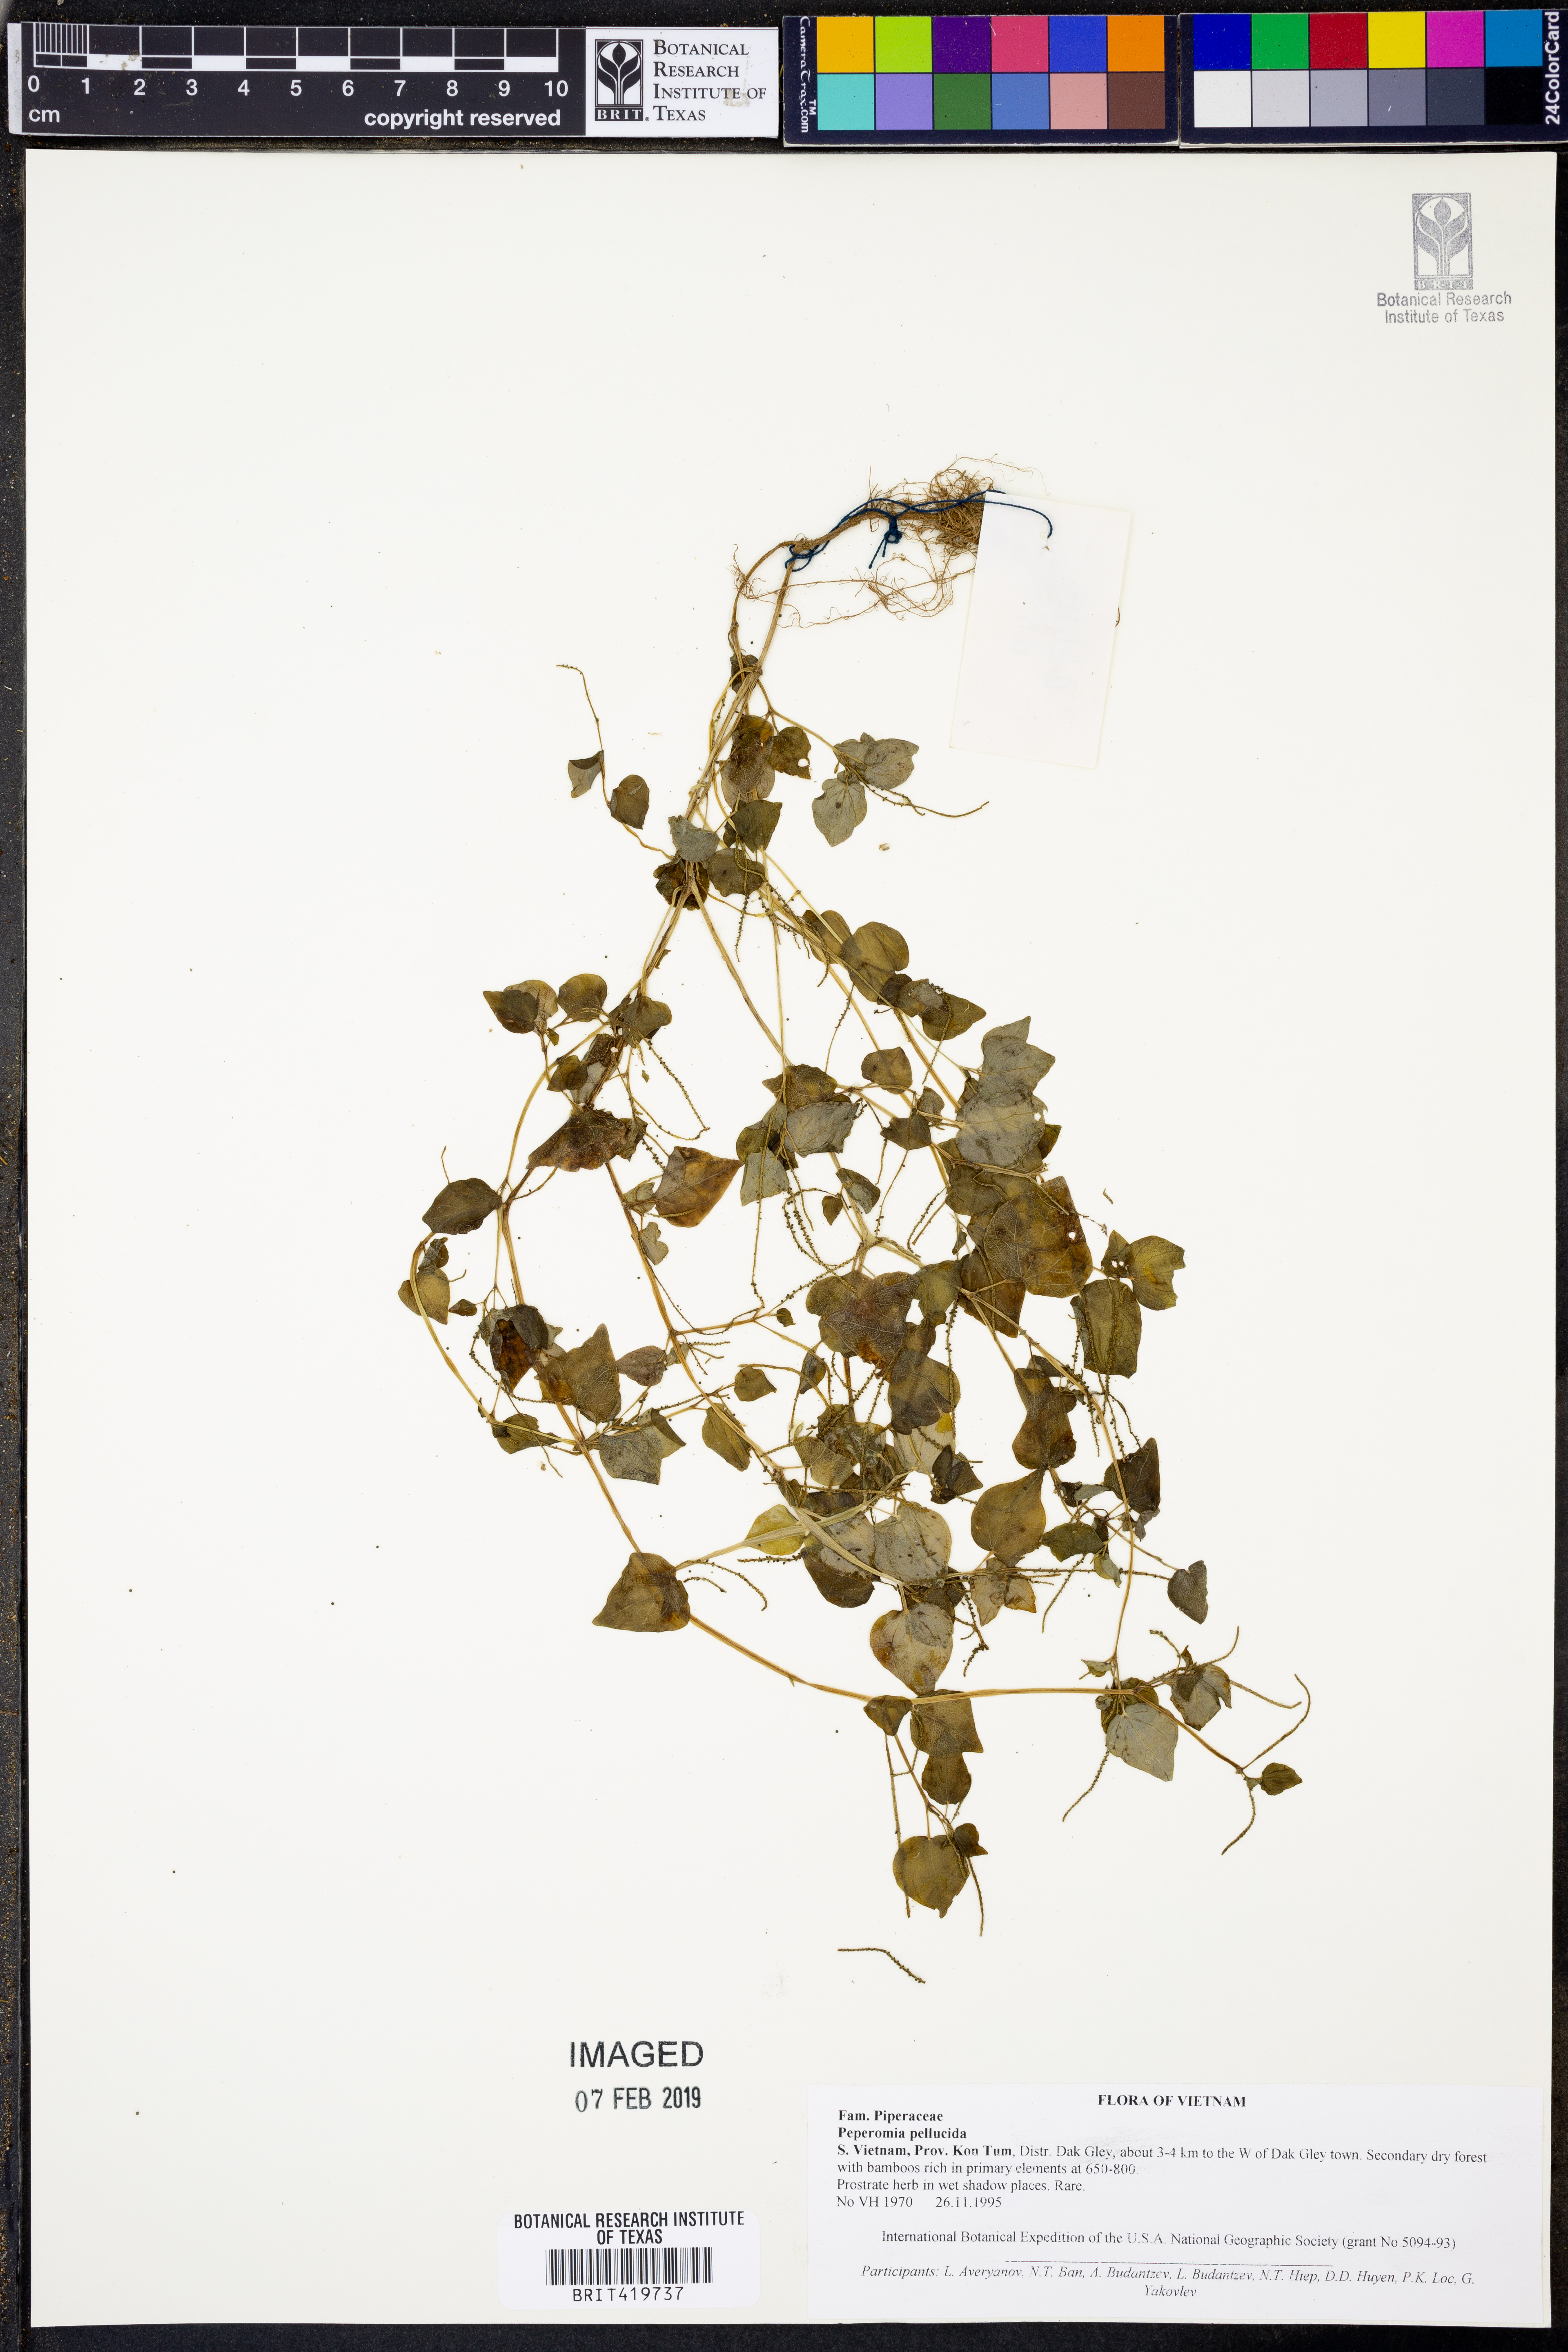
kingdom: Plantae
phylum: Tracheophyta
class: Magnoliopsida
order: Piperales
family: Piperaceae
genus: Peperomia
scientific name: Peperomia pellucida
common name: Man to man
